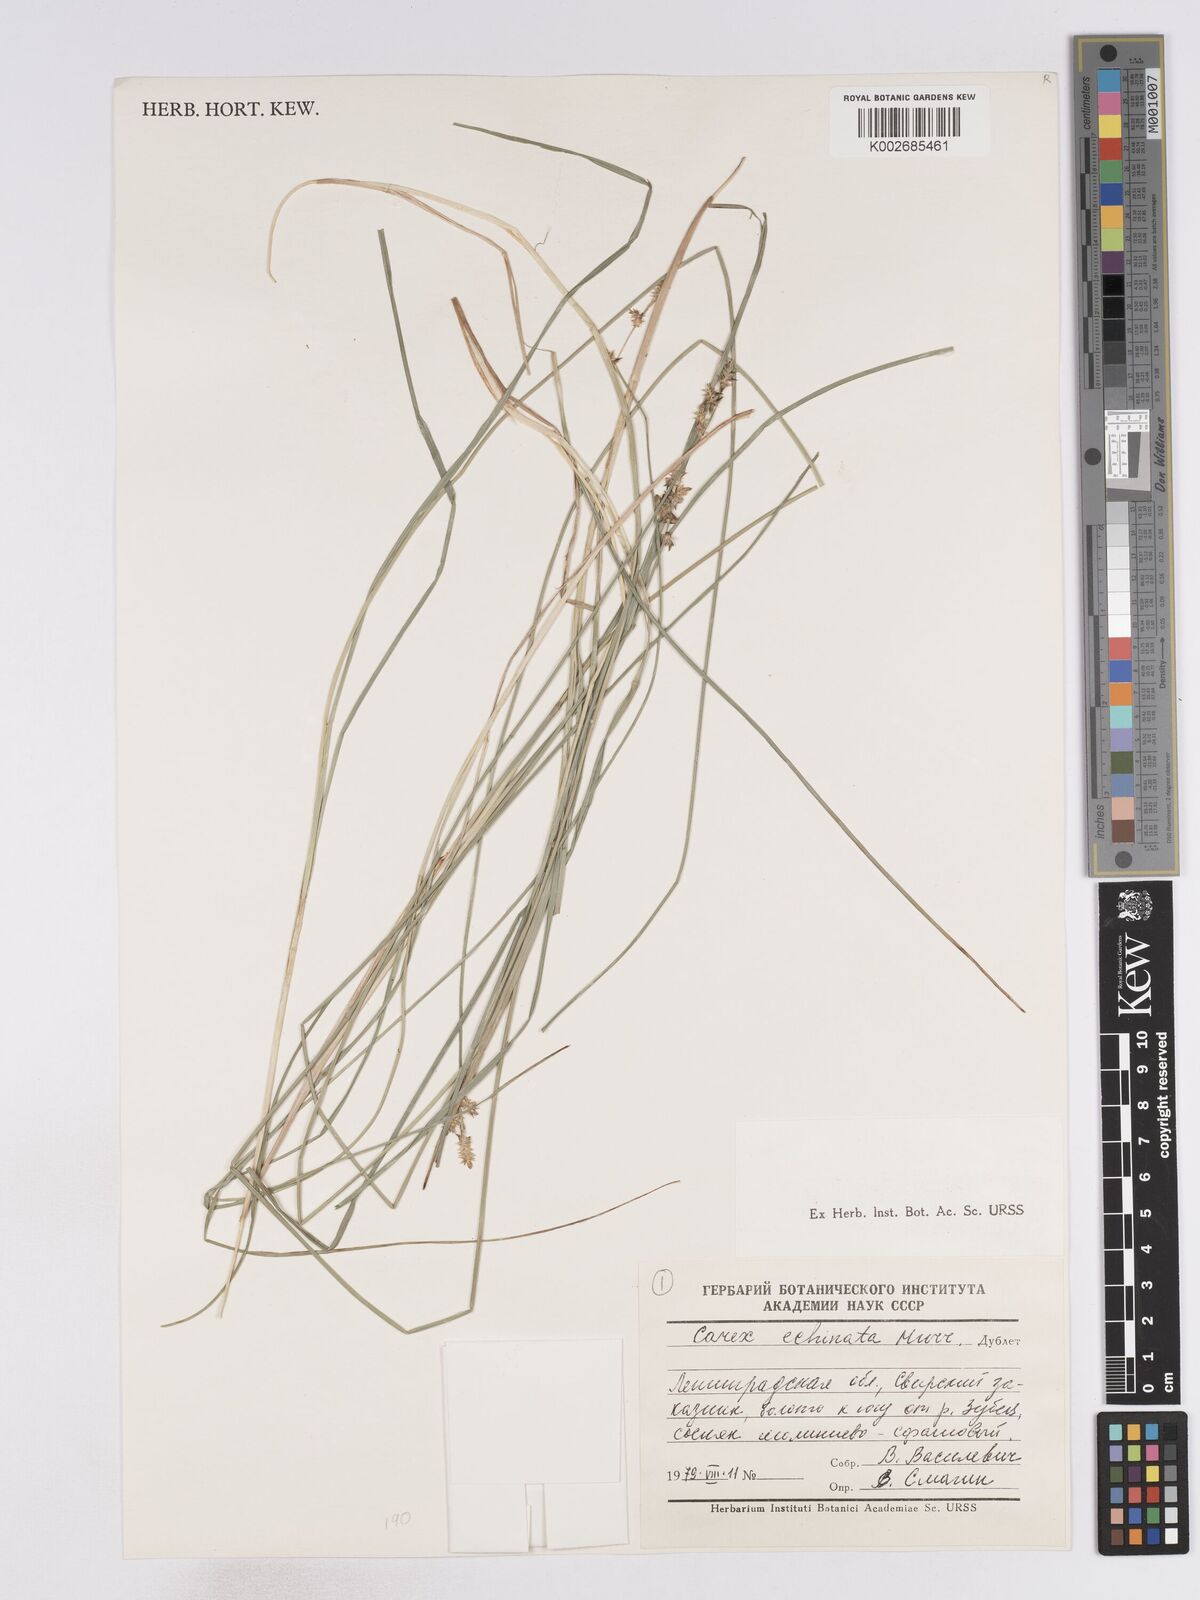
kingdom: Plantae
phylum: Tracheophyta
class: Liliopsida
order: Poales
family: Cyperaceae
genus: Carex
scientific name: Carex echinata
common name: Star sedge
